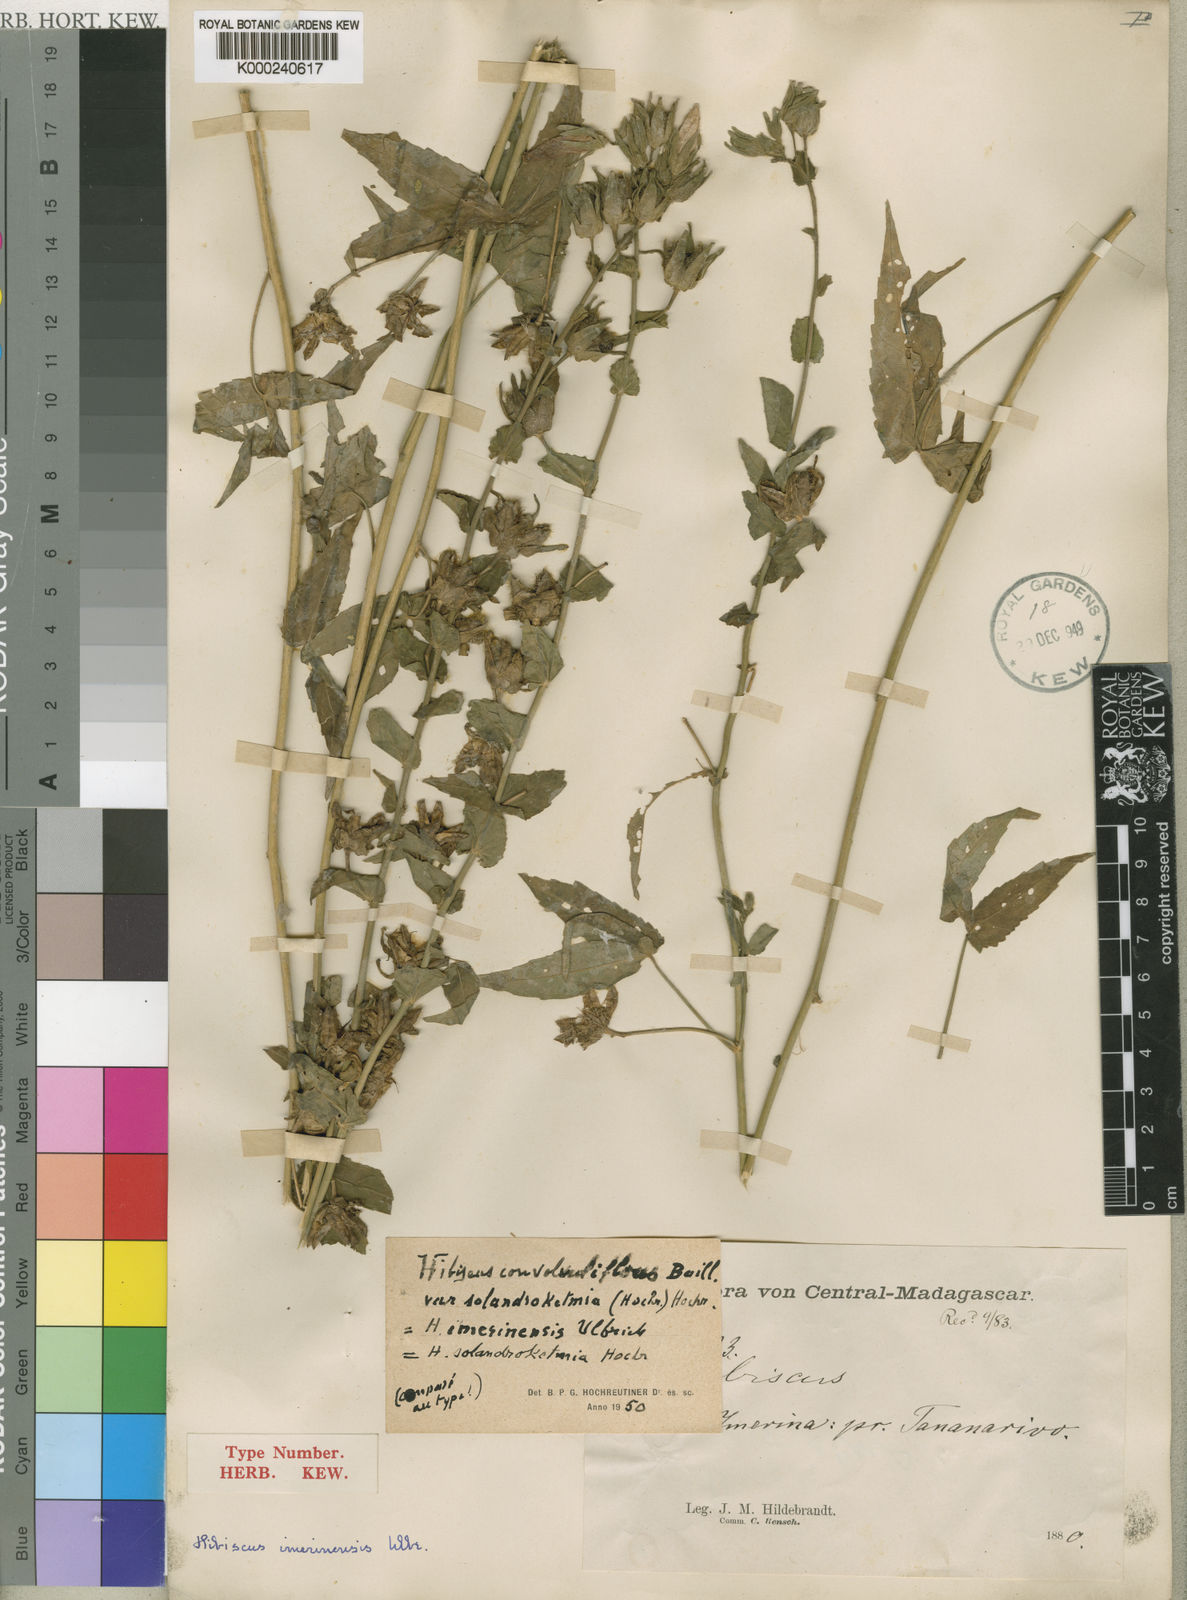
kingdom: Plantae
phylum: Tracheophyta
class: Magnoliopsida
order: Malvales
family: Malvaceae
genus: Hibiscus
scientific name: Hibiscus stenophyllus
